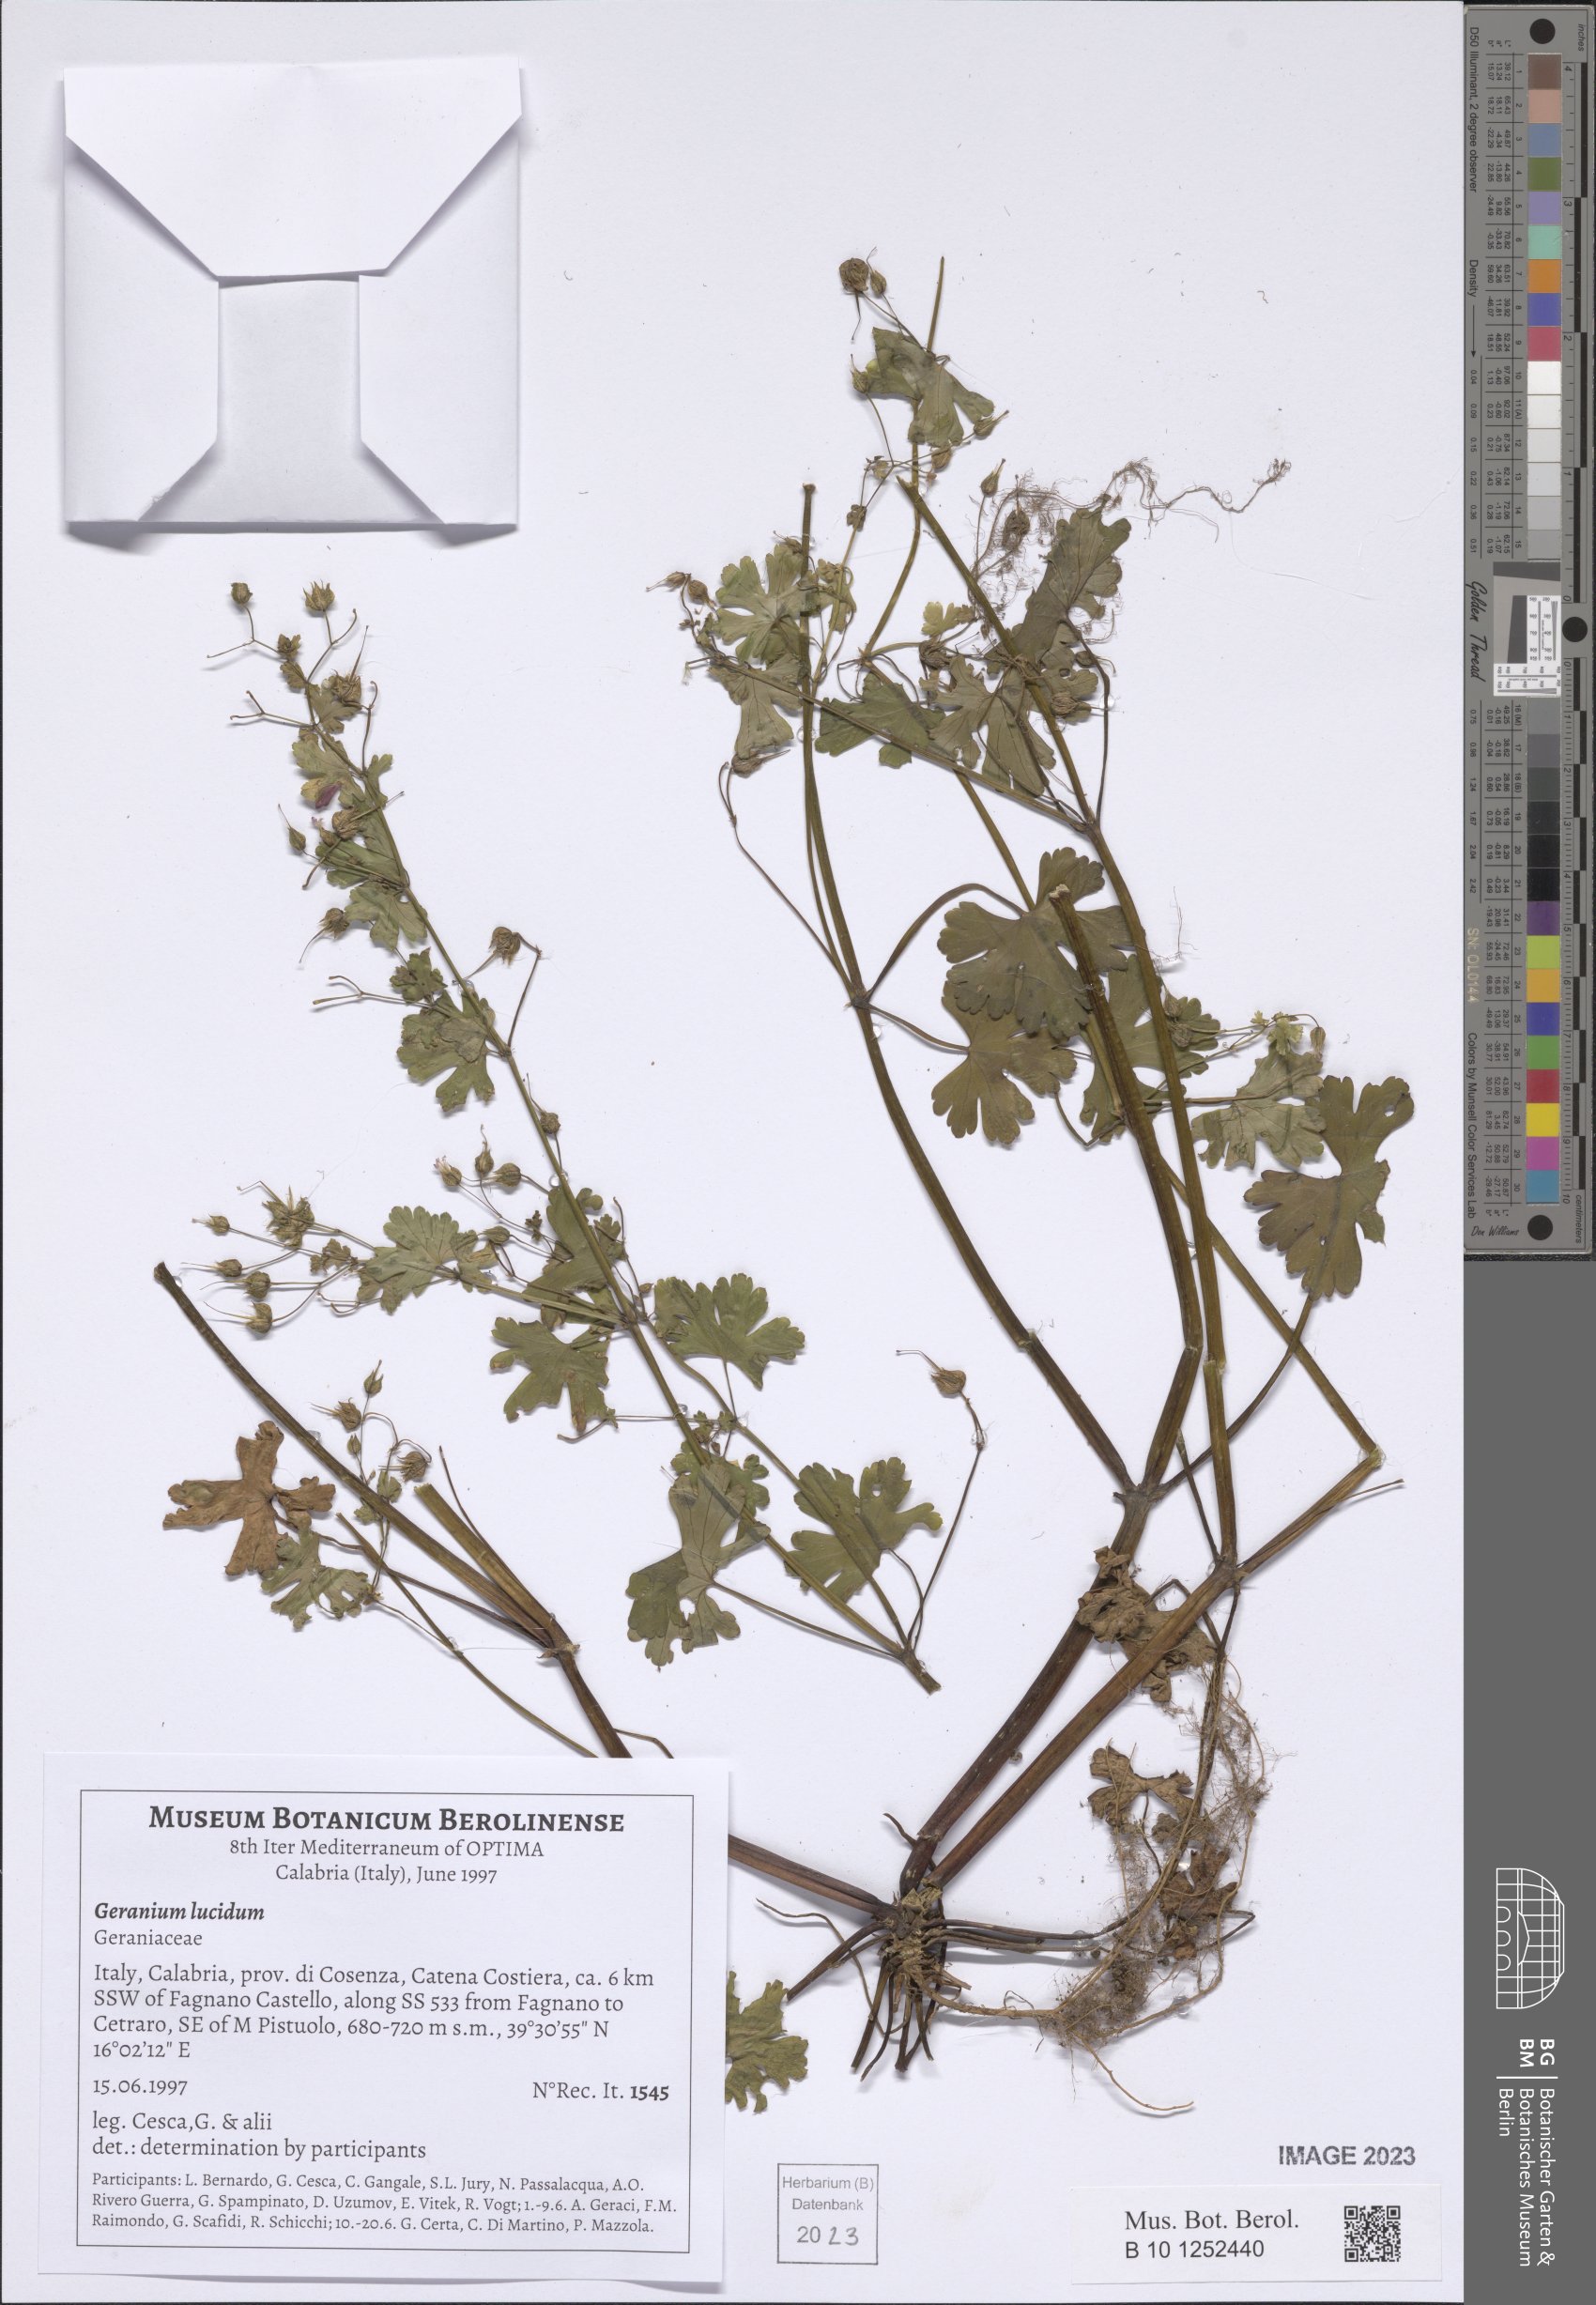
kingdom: Plantae
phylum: Tracheophyta
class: Magnoliopsida
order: Geraniales
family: Geraniaceae
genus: Geranium
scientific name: Geranium lucidum
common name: Shining crane's-bill
